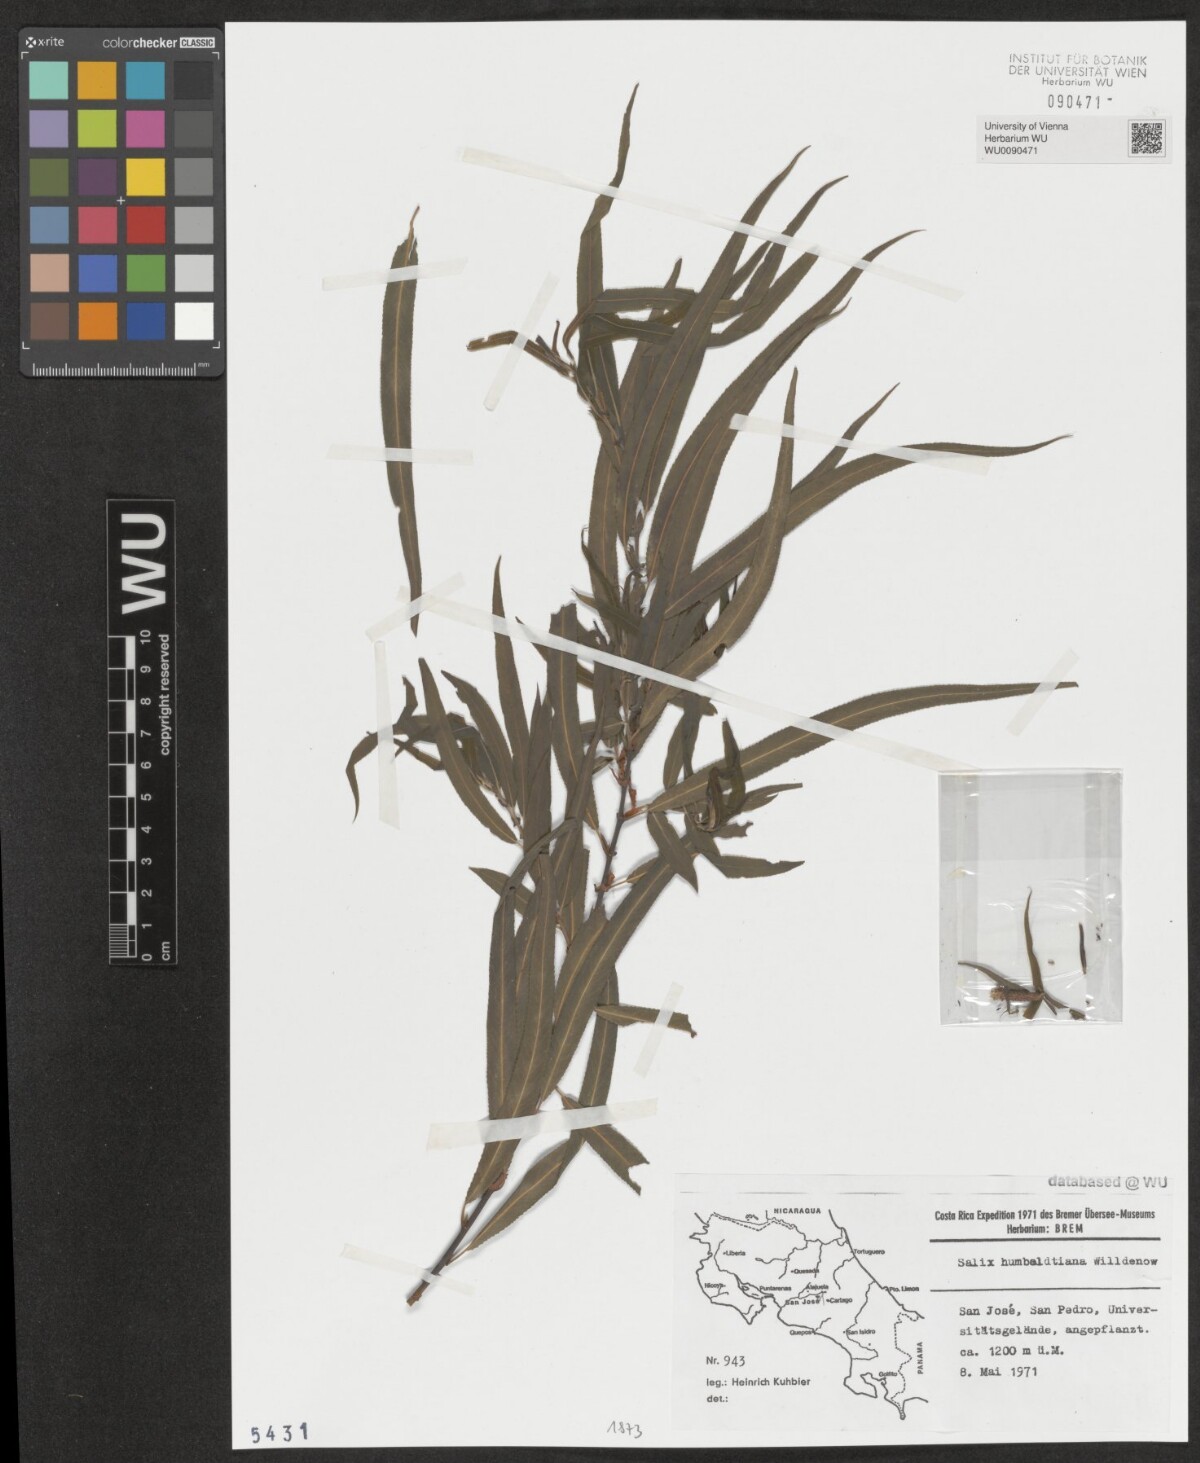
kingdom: Plantae
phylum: Tracheophyta
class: Magnoliopsida
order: Malpighiales
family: Salicaceae
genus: Salix
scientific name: Salix humboldtiana
